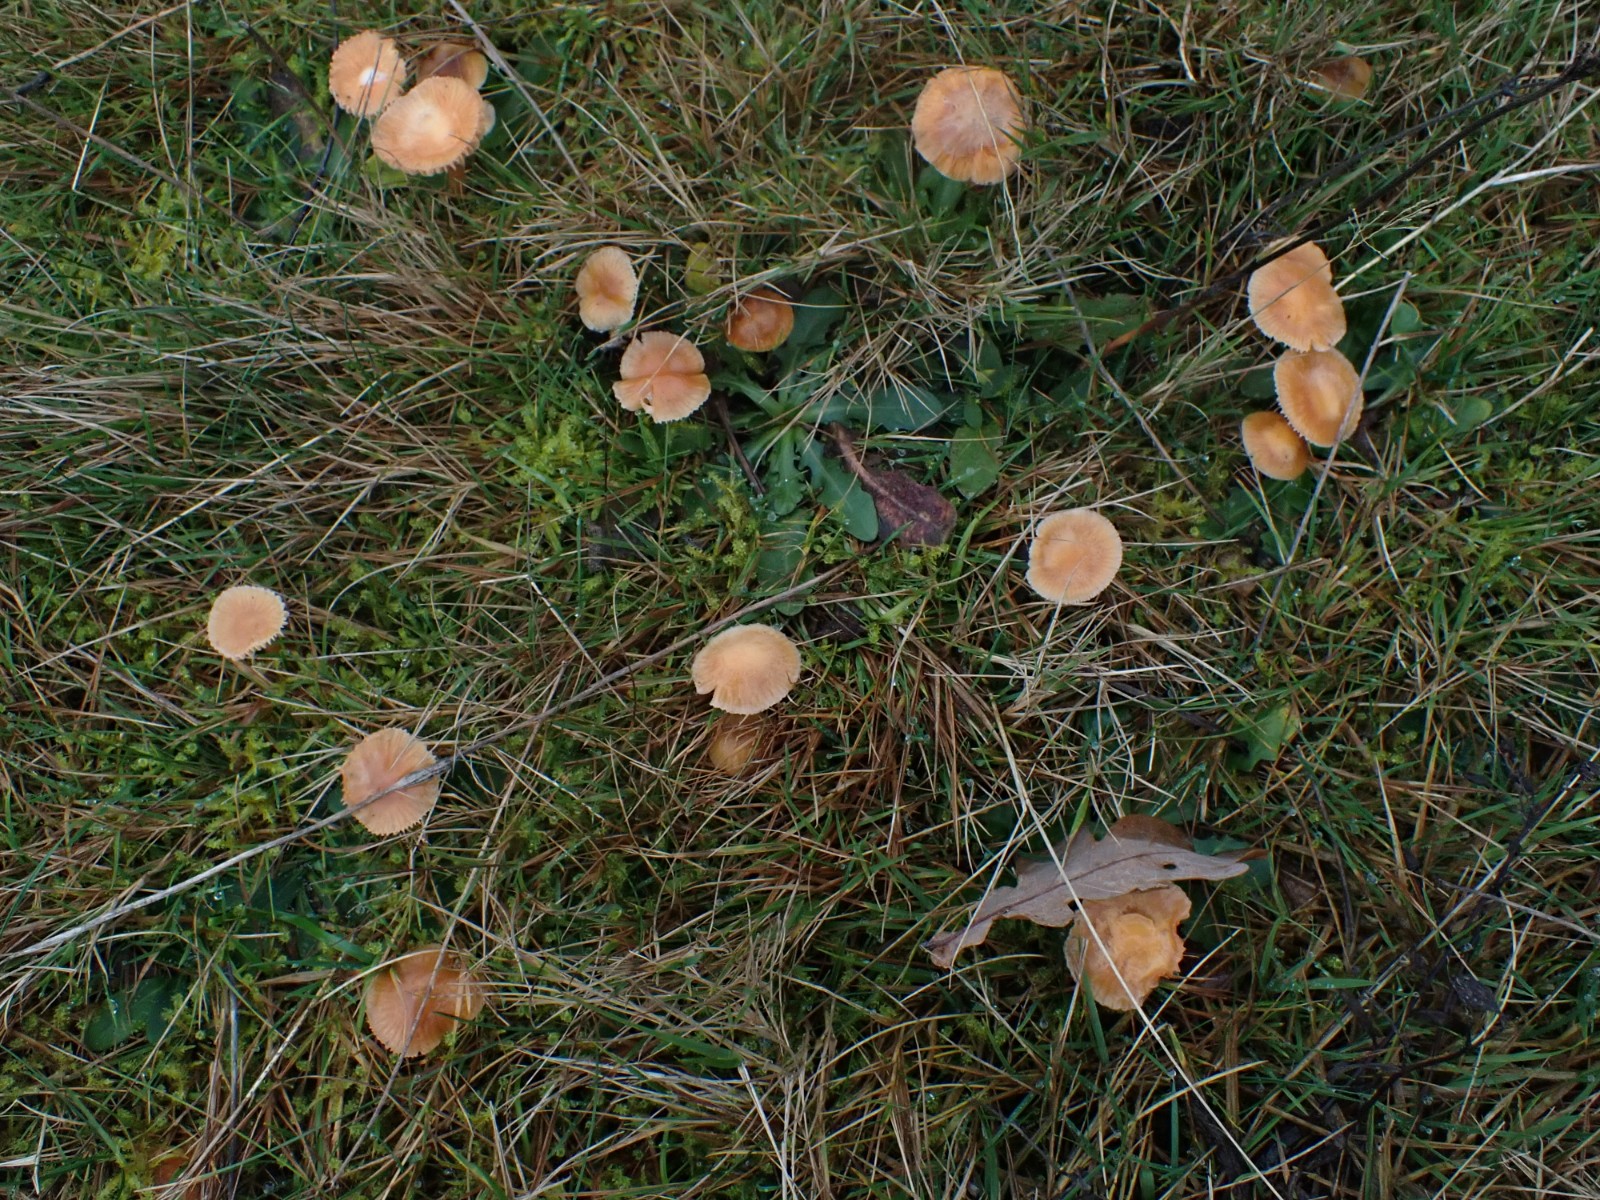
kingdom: Fungi
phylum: Basidiomycota
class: Agaricomycetes
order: Agaricales
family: Hygrophoraceae
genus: Gliophorus
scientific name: Gliophorus laetus
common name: brusk-vokshat
